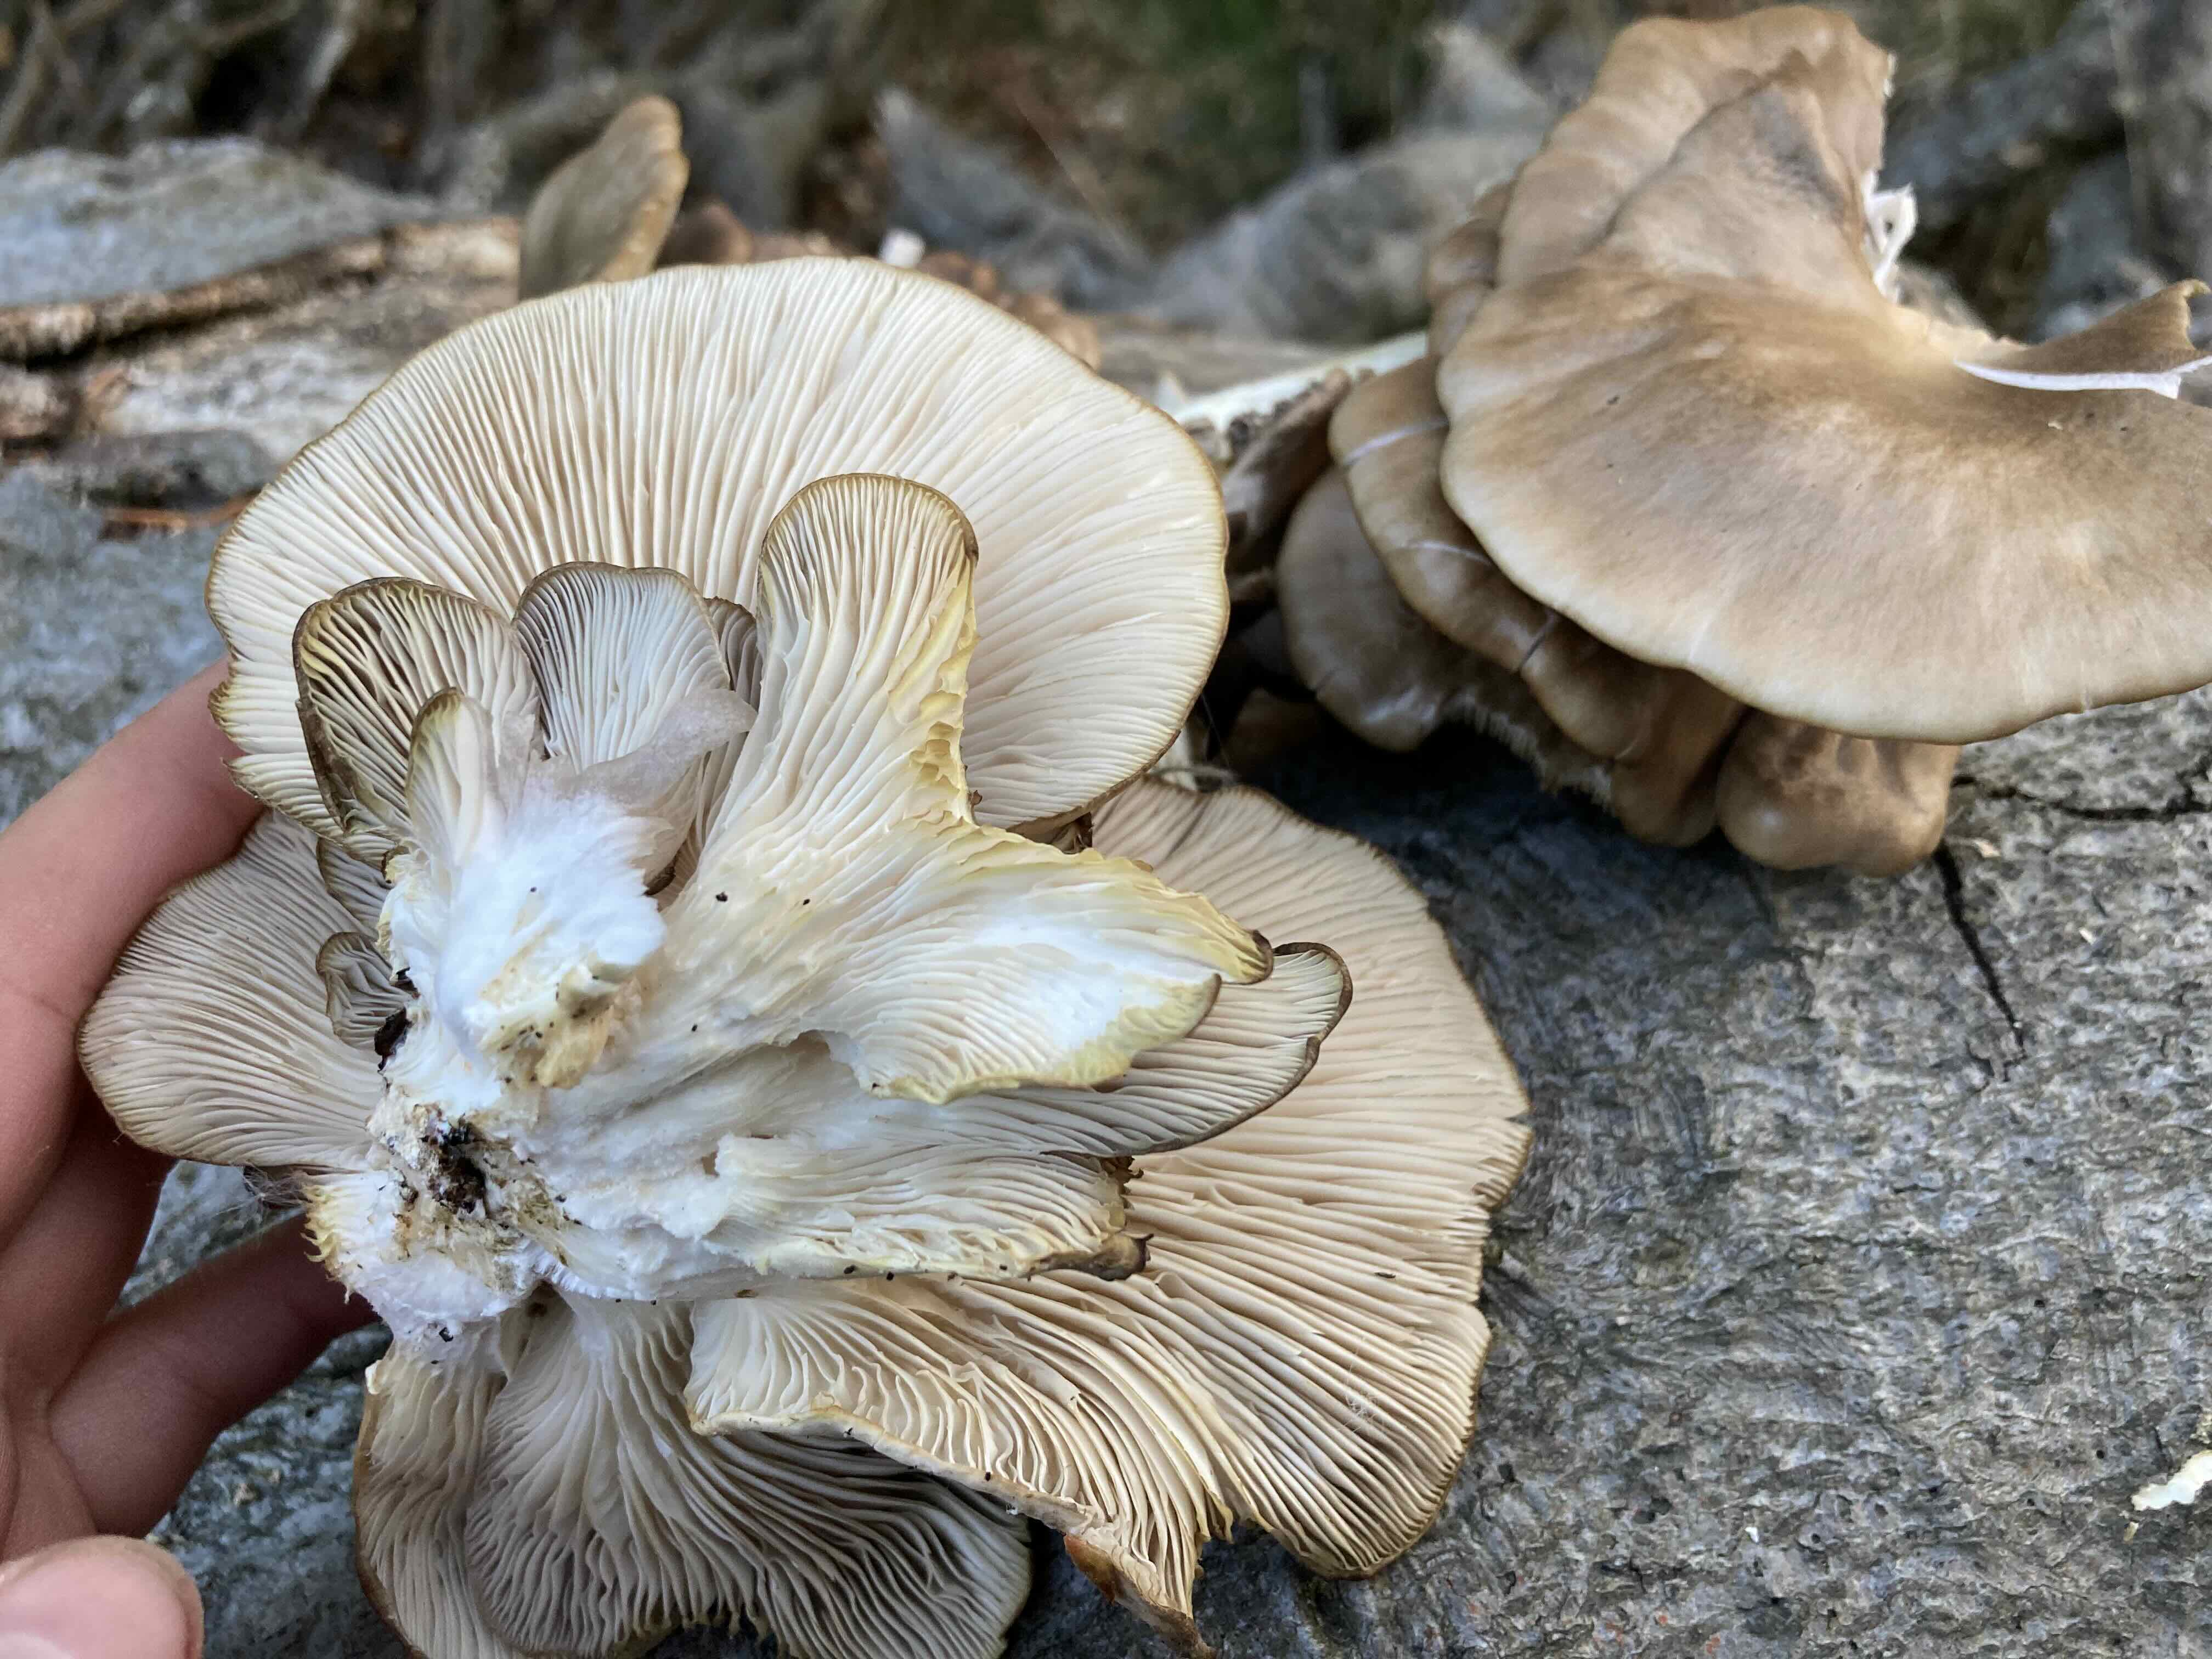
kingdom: Fungi
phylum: Basidiomycota
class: Agaricomycetes
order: Agaricales
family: Pleurotaceae
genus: Pleurotus
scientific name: Pleurotus pulmonarius
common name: sommer-østershat
